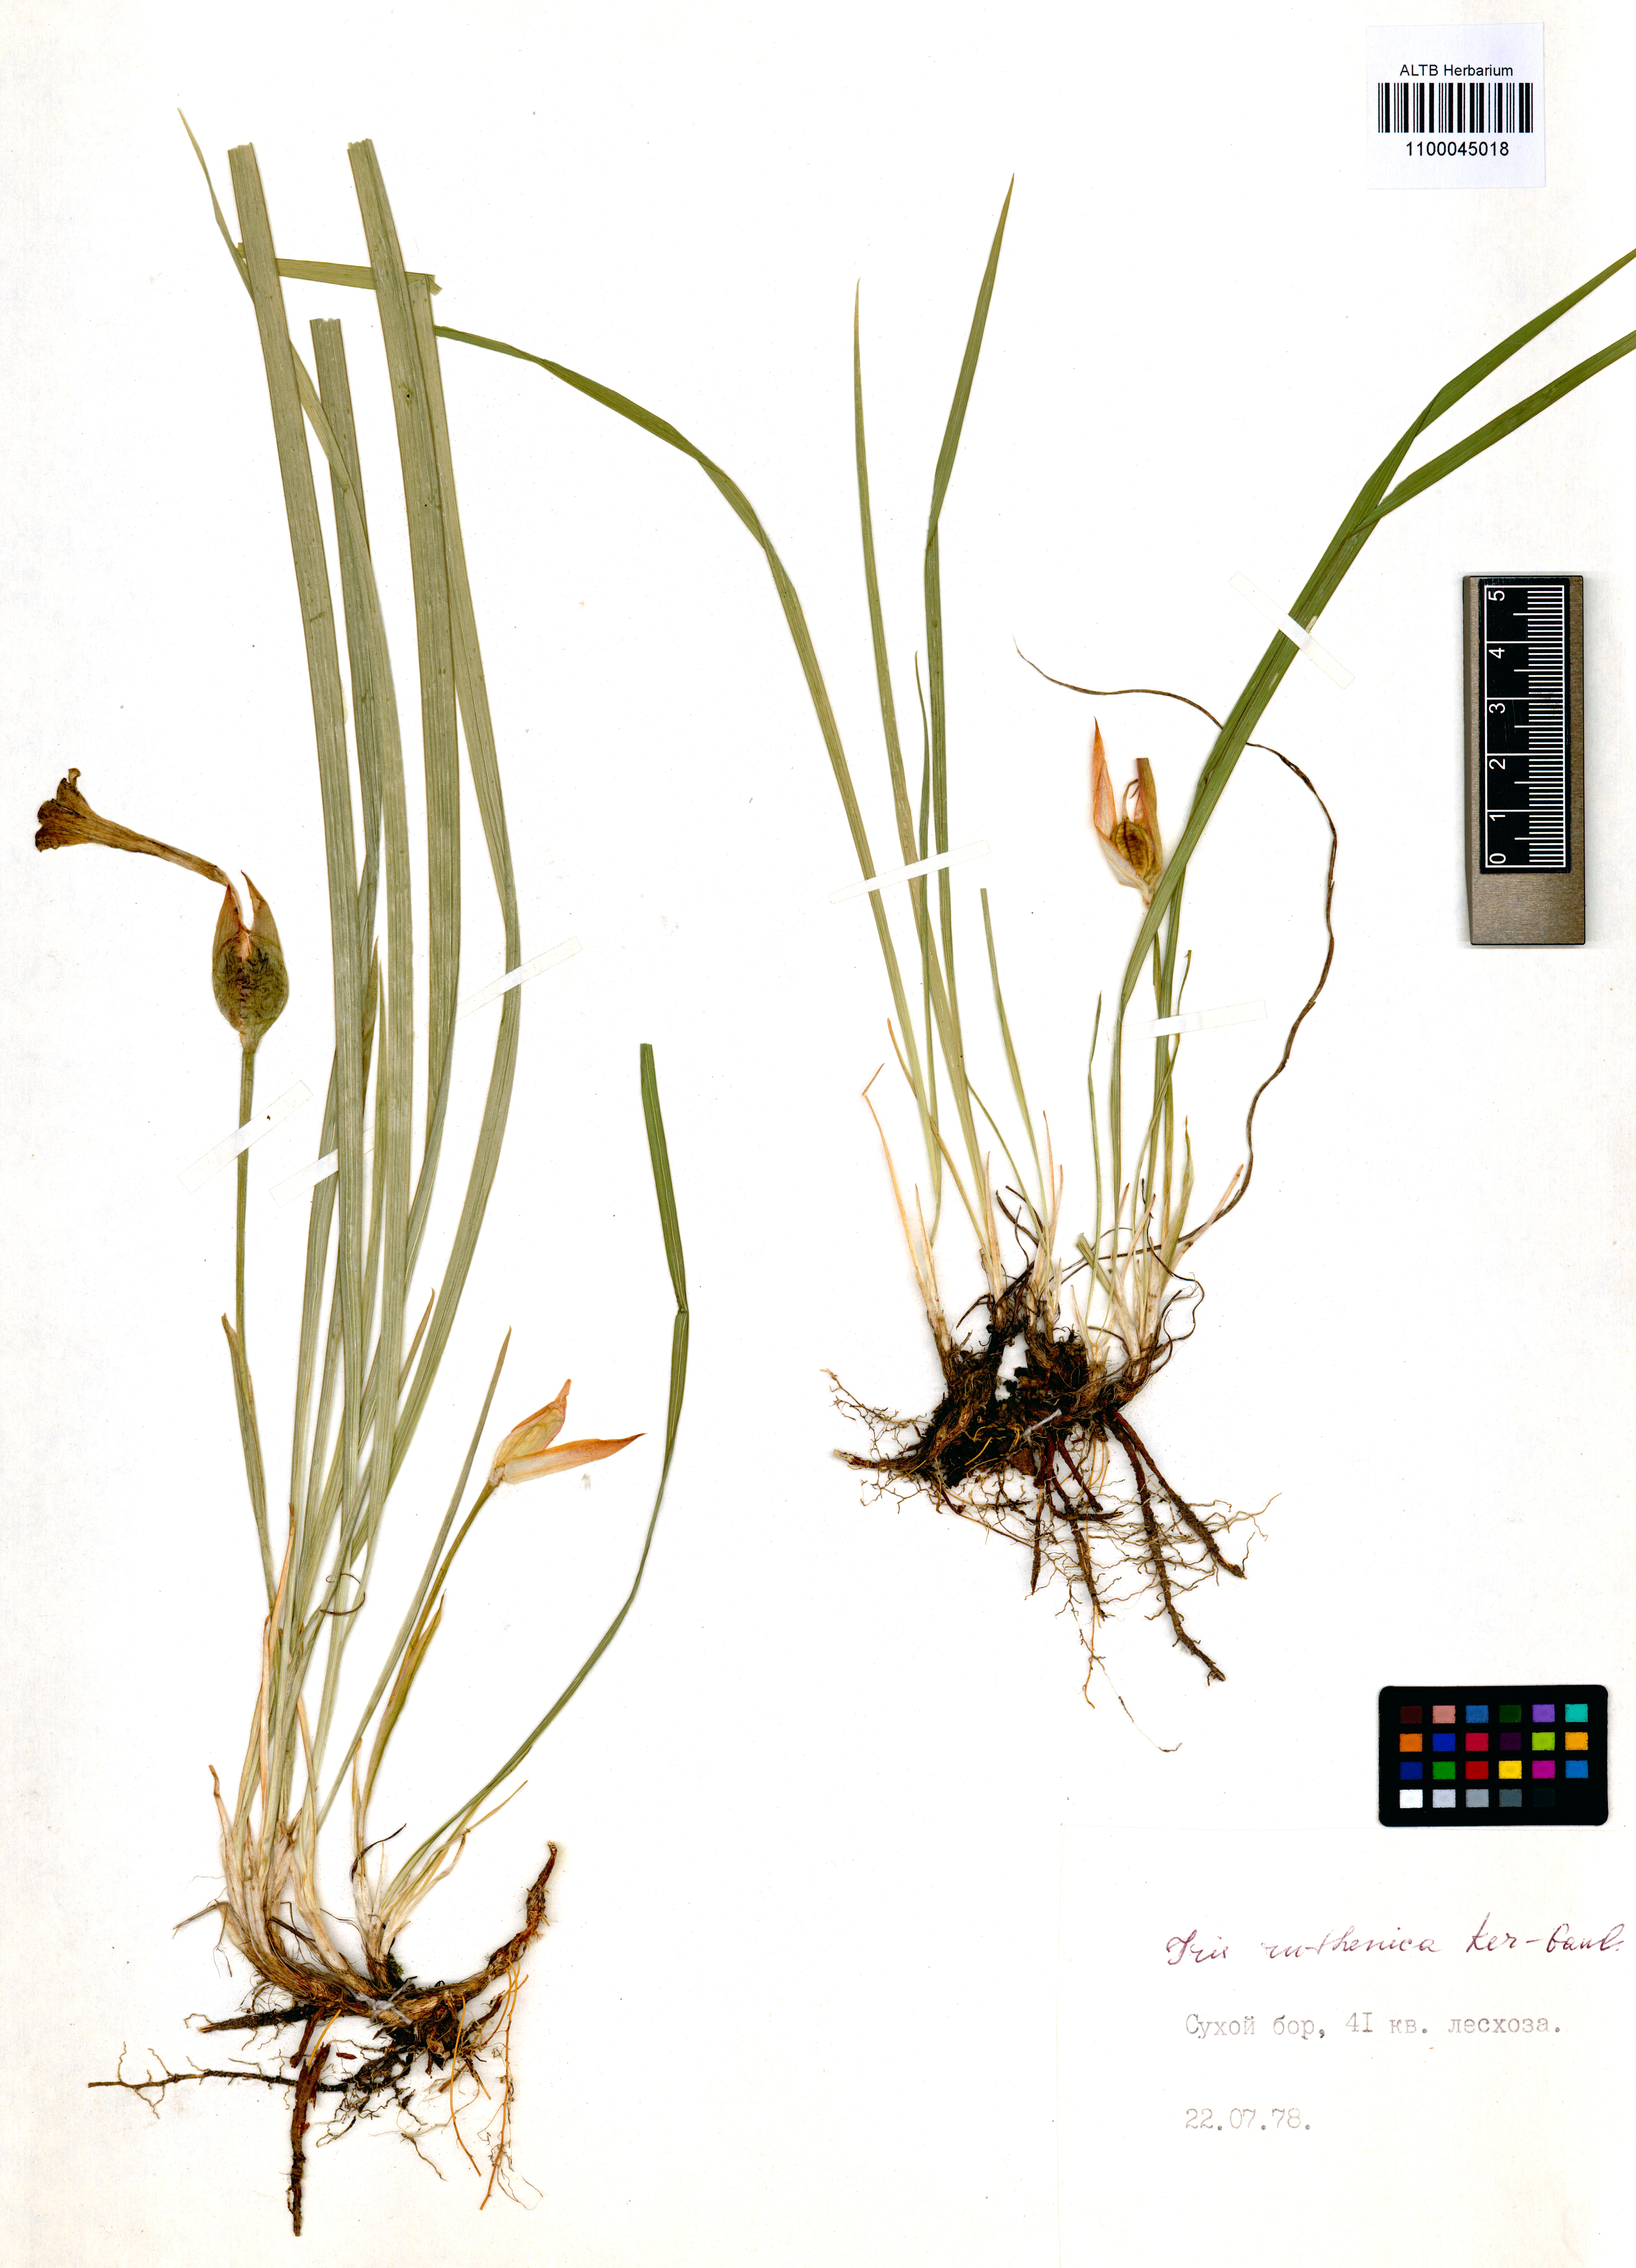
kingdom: Plantae
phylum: Tracheophyta
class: Liliopsida
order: Asparagales
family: Iridaceae
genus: Iris
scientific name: Iris ruthenica
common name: Purple-bract iris
